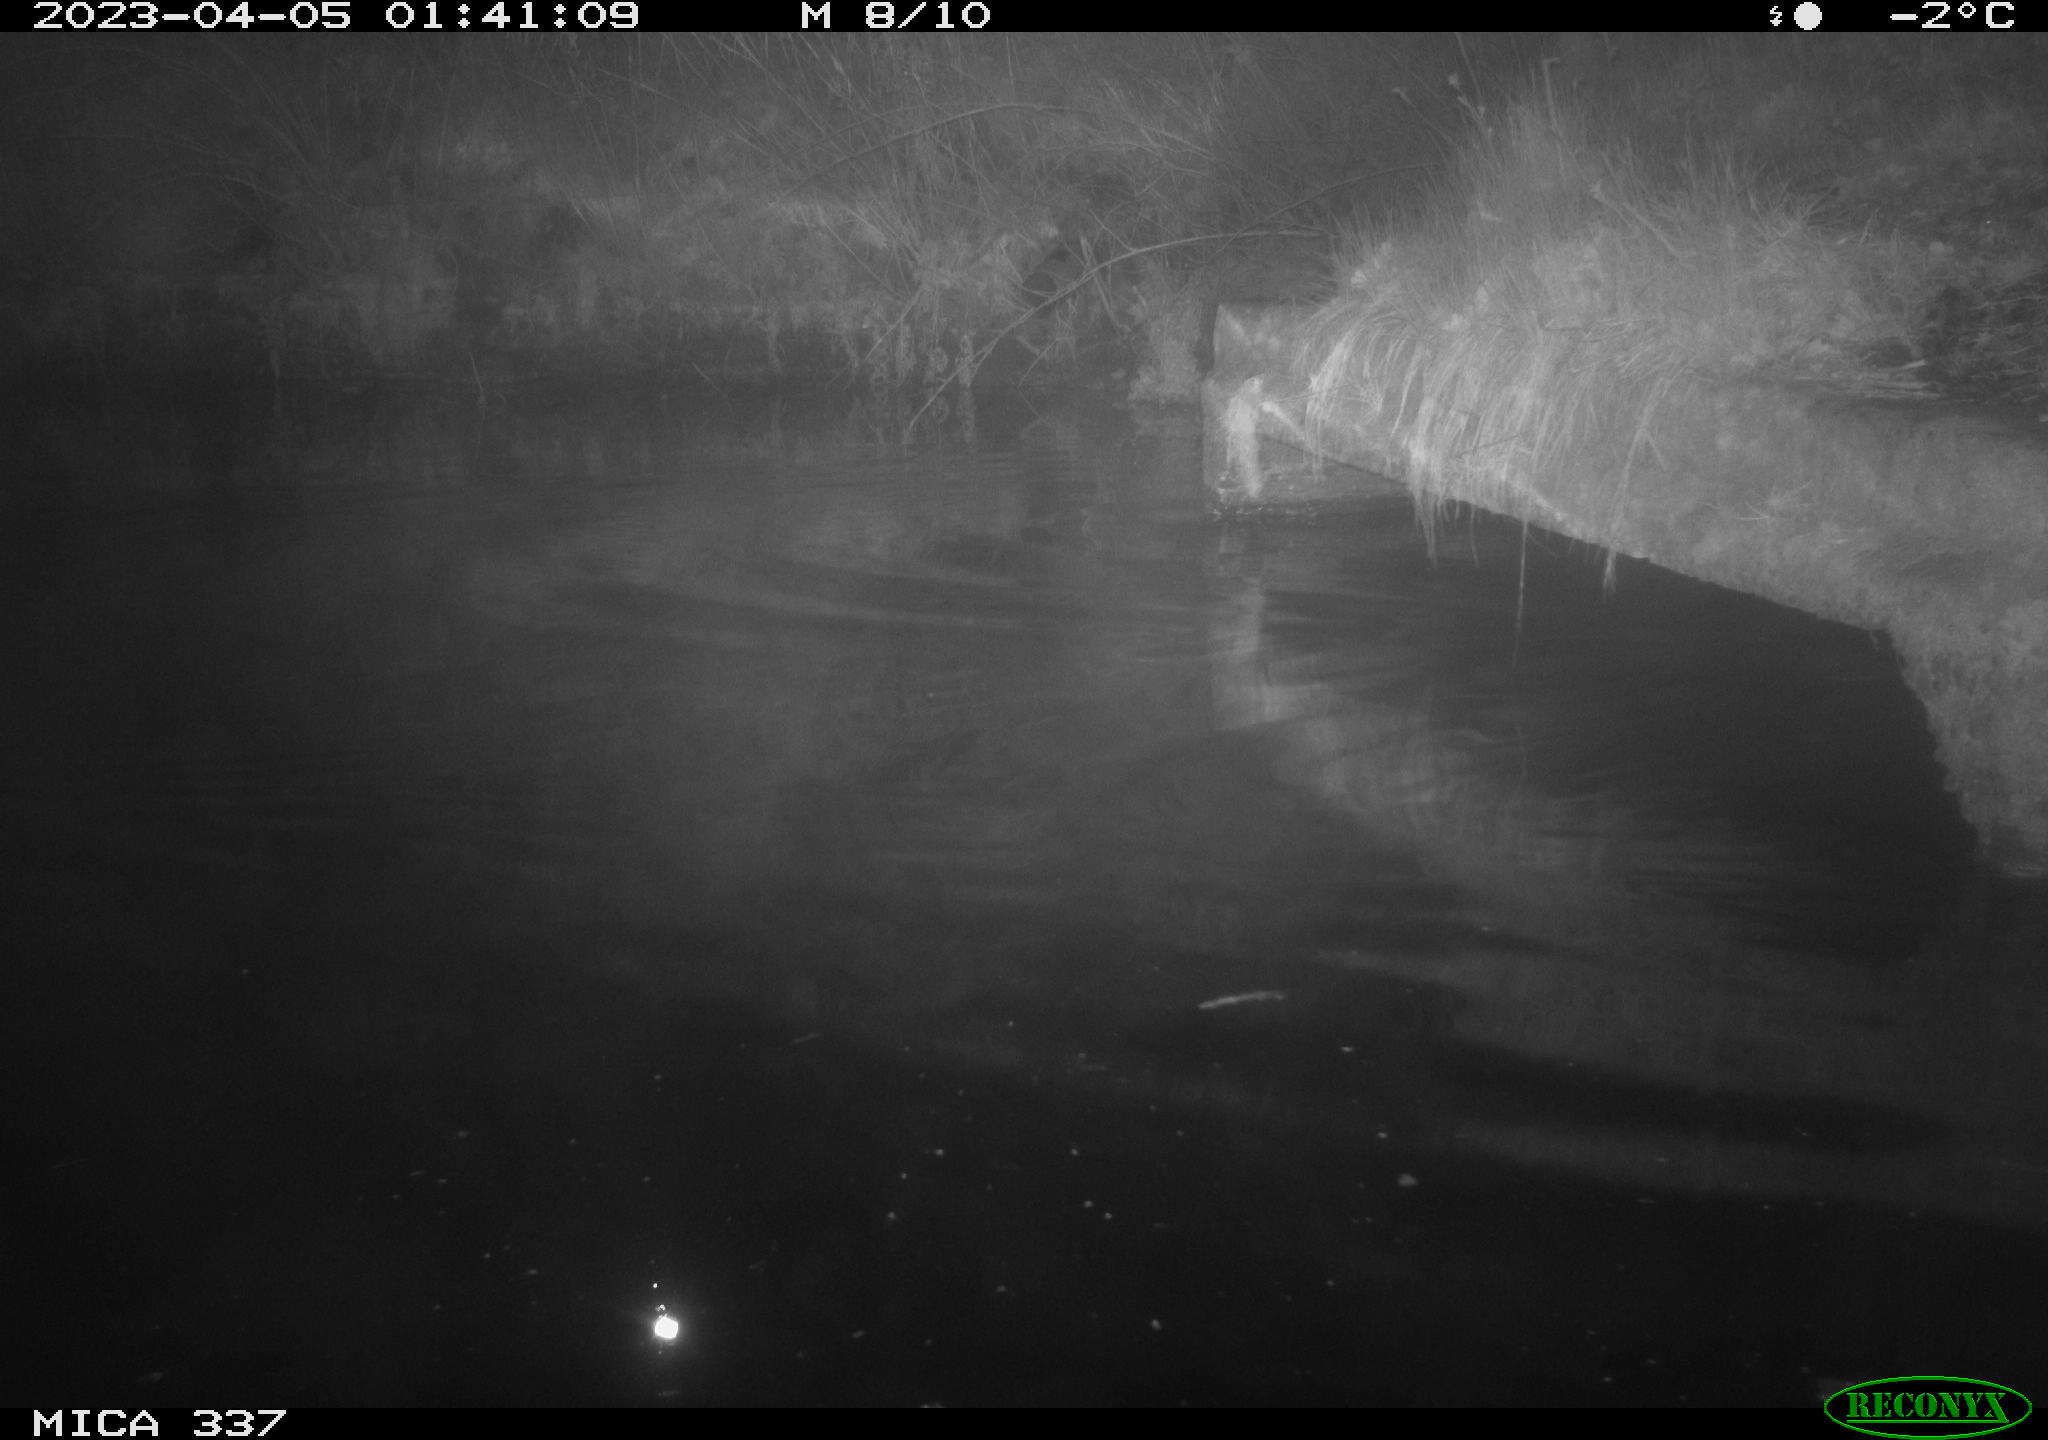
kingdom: Animalia
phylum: Chordata
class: Aves
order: Anseriformes
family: Anatidae
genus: Anas
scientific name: Anas
